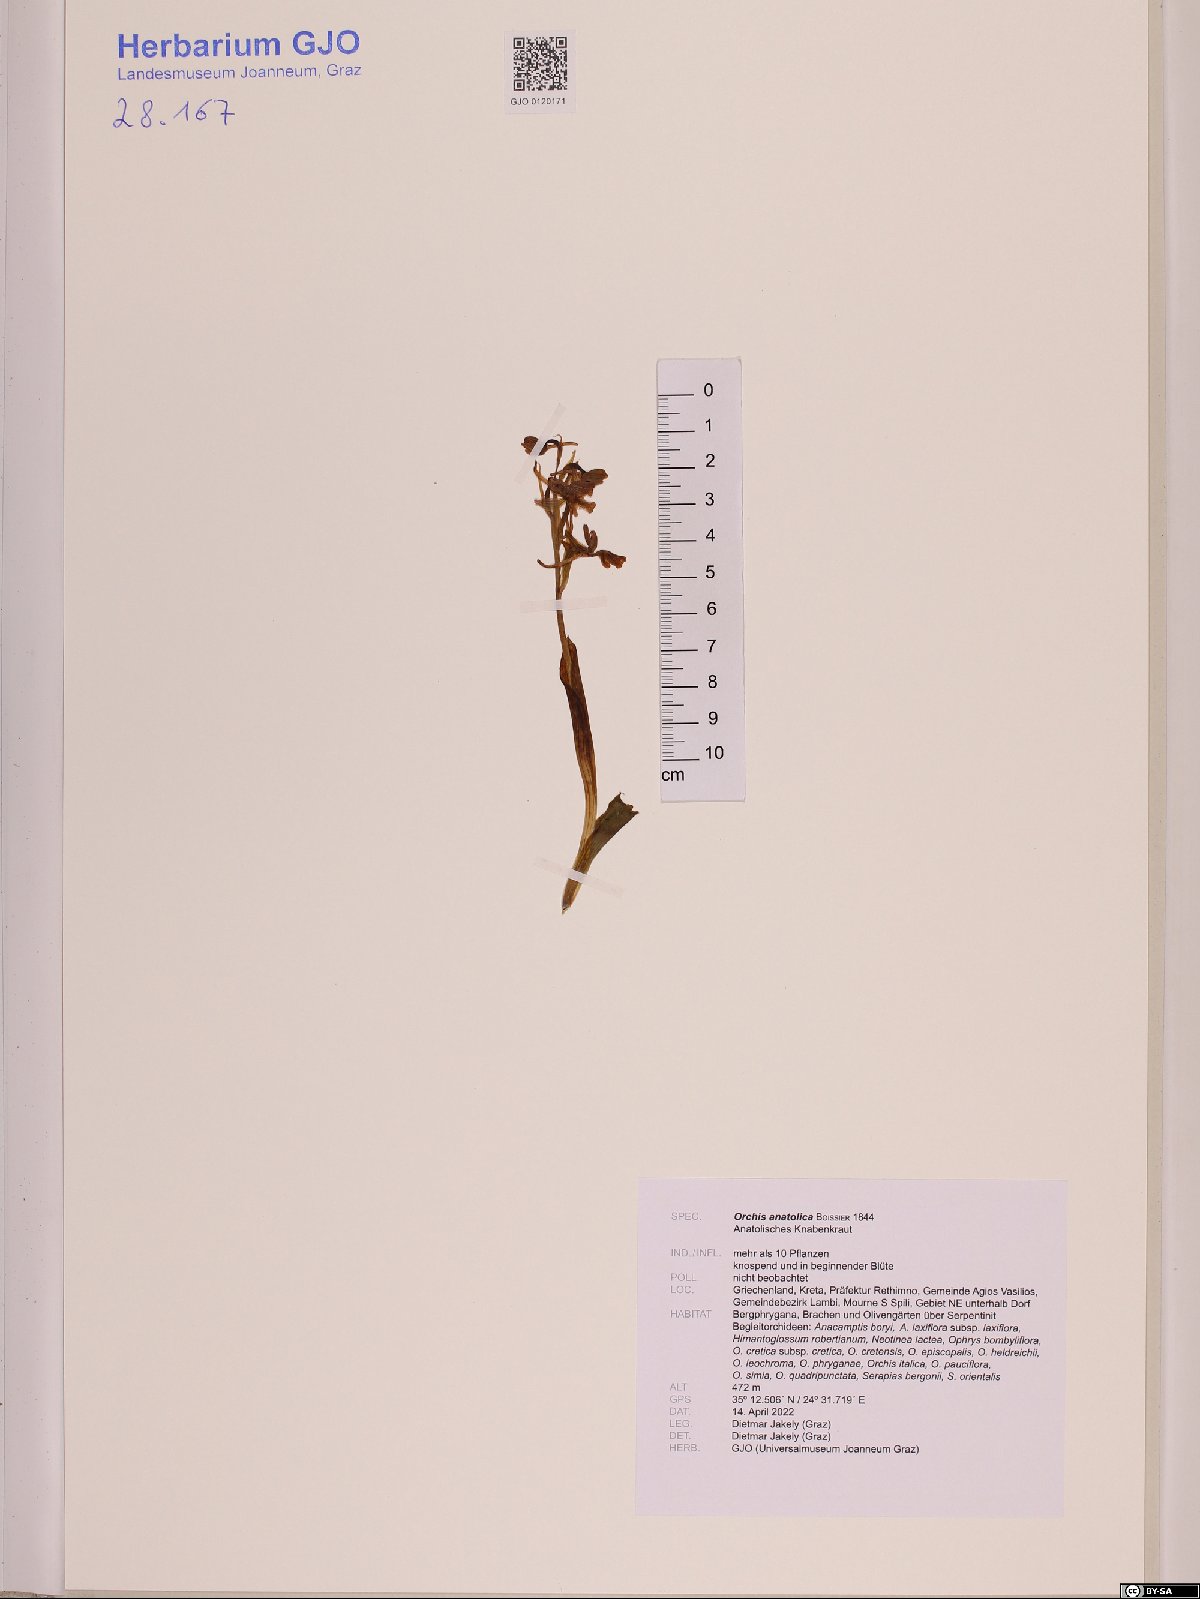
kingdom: Plantae
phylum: Tracheophyta
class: Liliopsida
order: Asparagales
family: Orchidaceae
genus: Orchis
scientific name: Orchis anatolica
